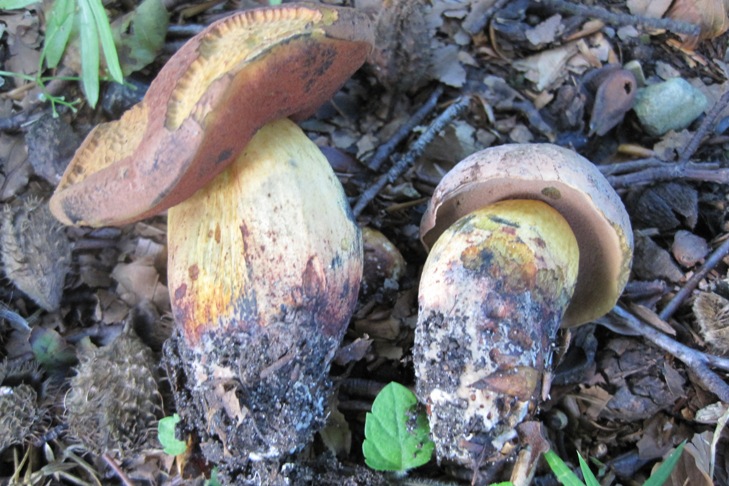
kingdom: Fungi
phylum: Basidiomycota
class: Agaricomycetes
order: Boletales
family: Boletaceae
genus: Suillellus
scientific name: Suillellus queletii
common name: glatstokket indigorørhat
